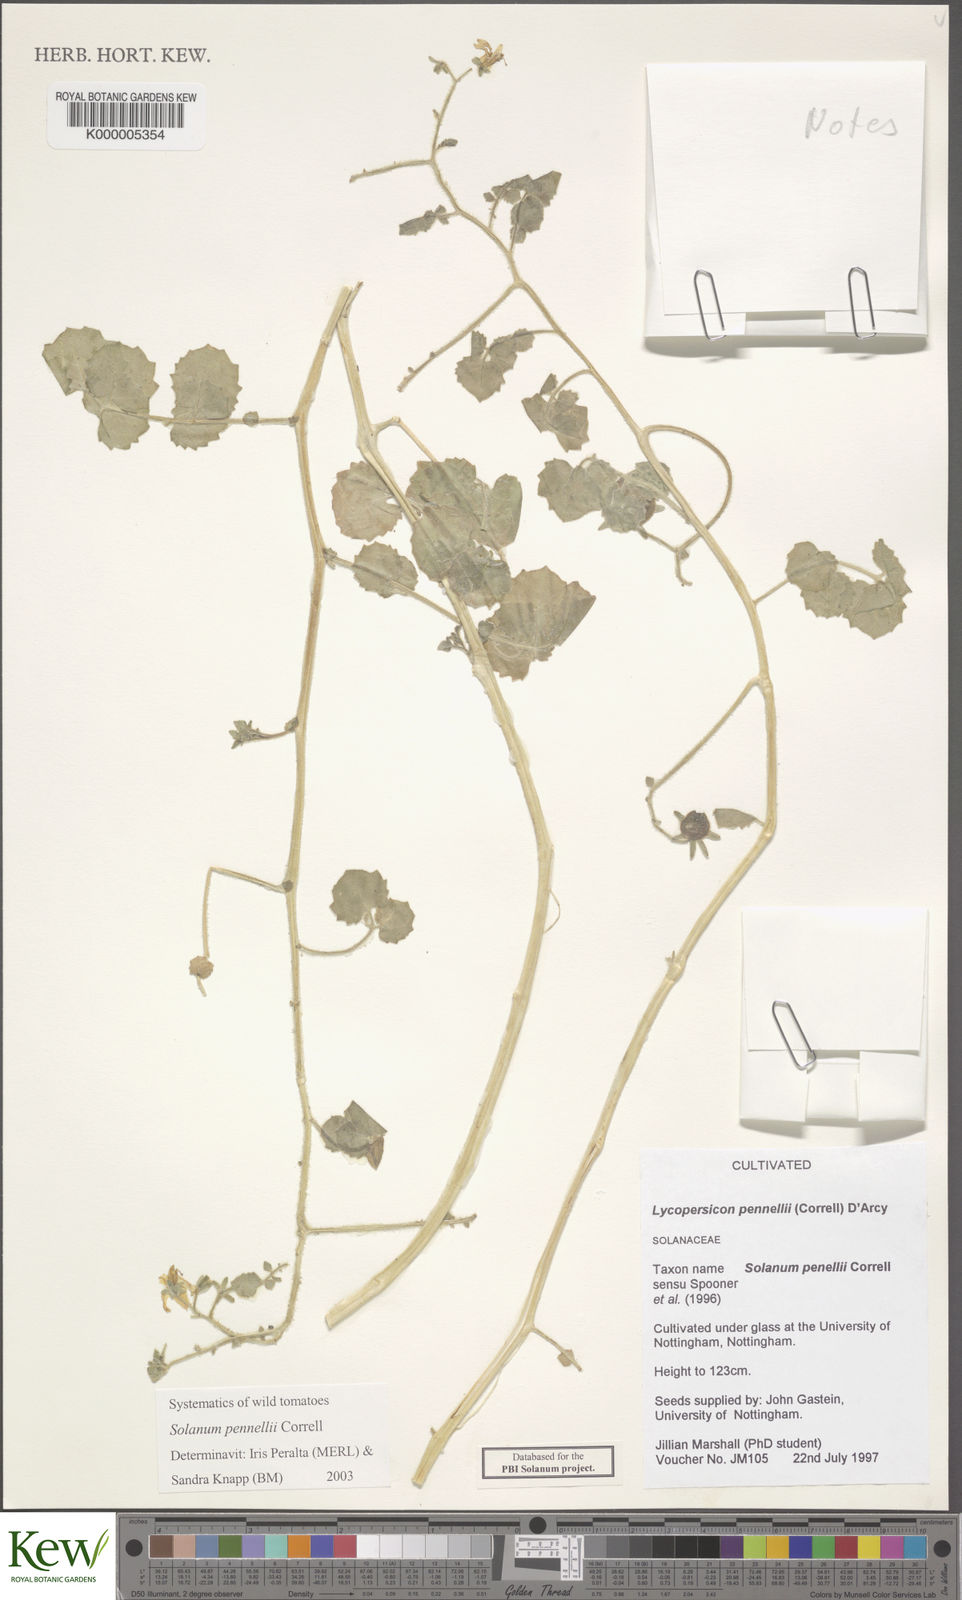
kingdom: Plantae
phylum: Tracheophyta
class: Magnoliopsida
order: Solanales
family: Solanaceae
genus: Solanum
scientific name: Solanum pennellii
